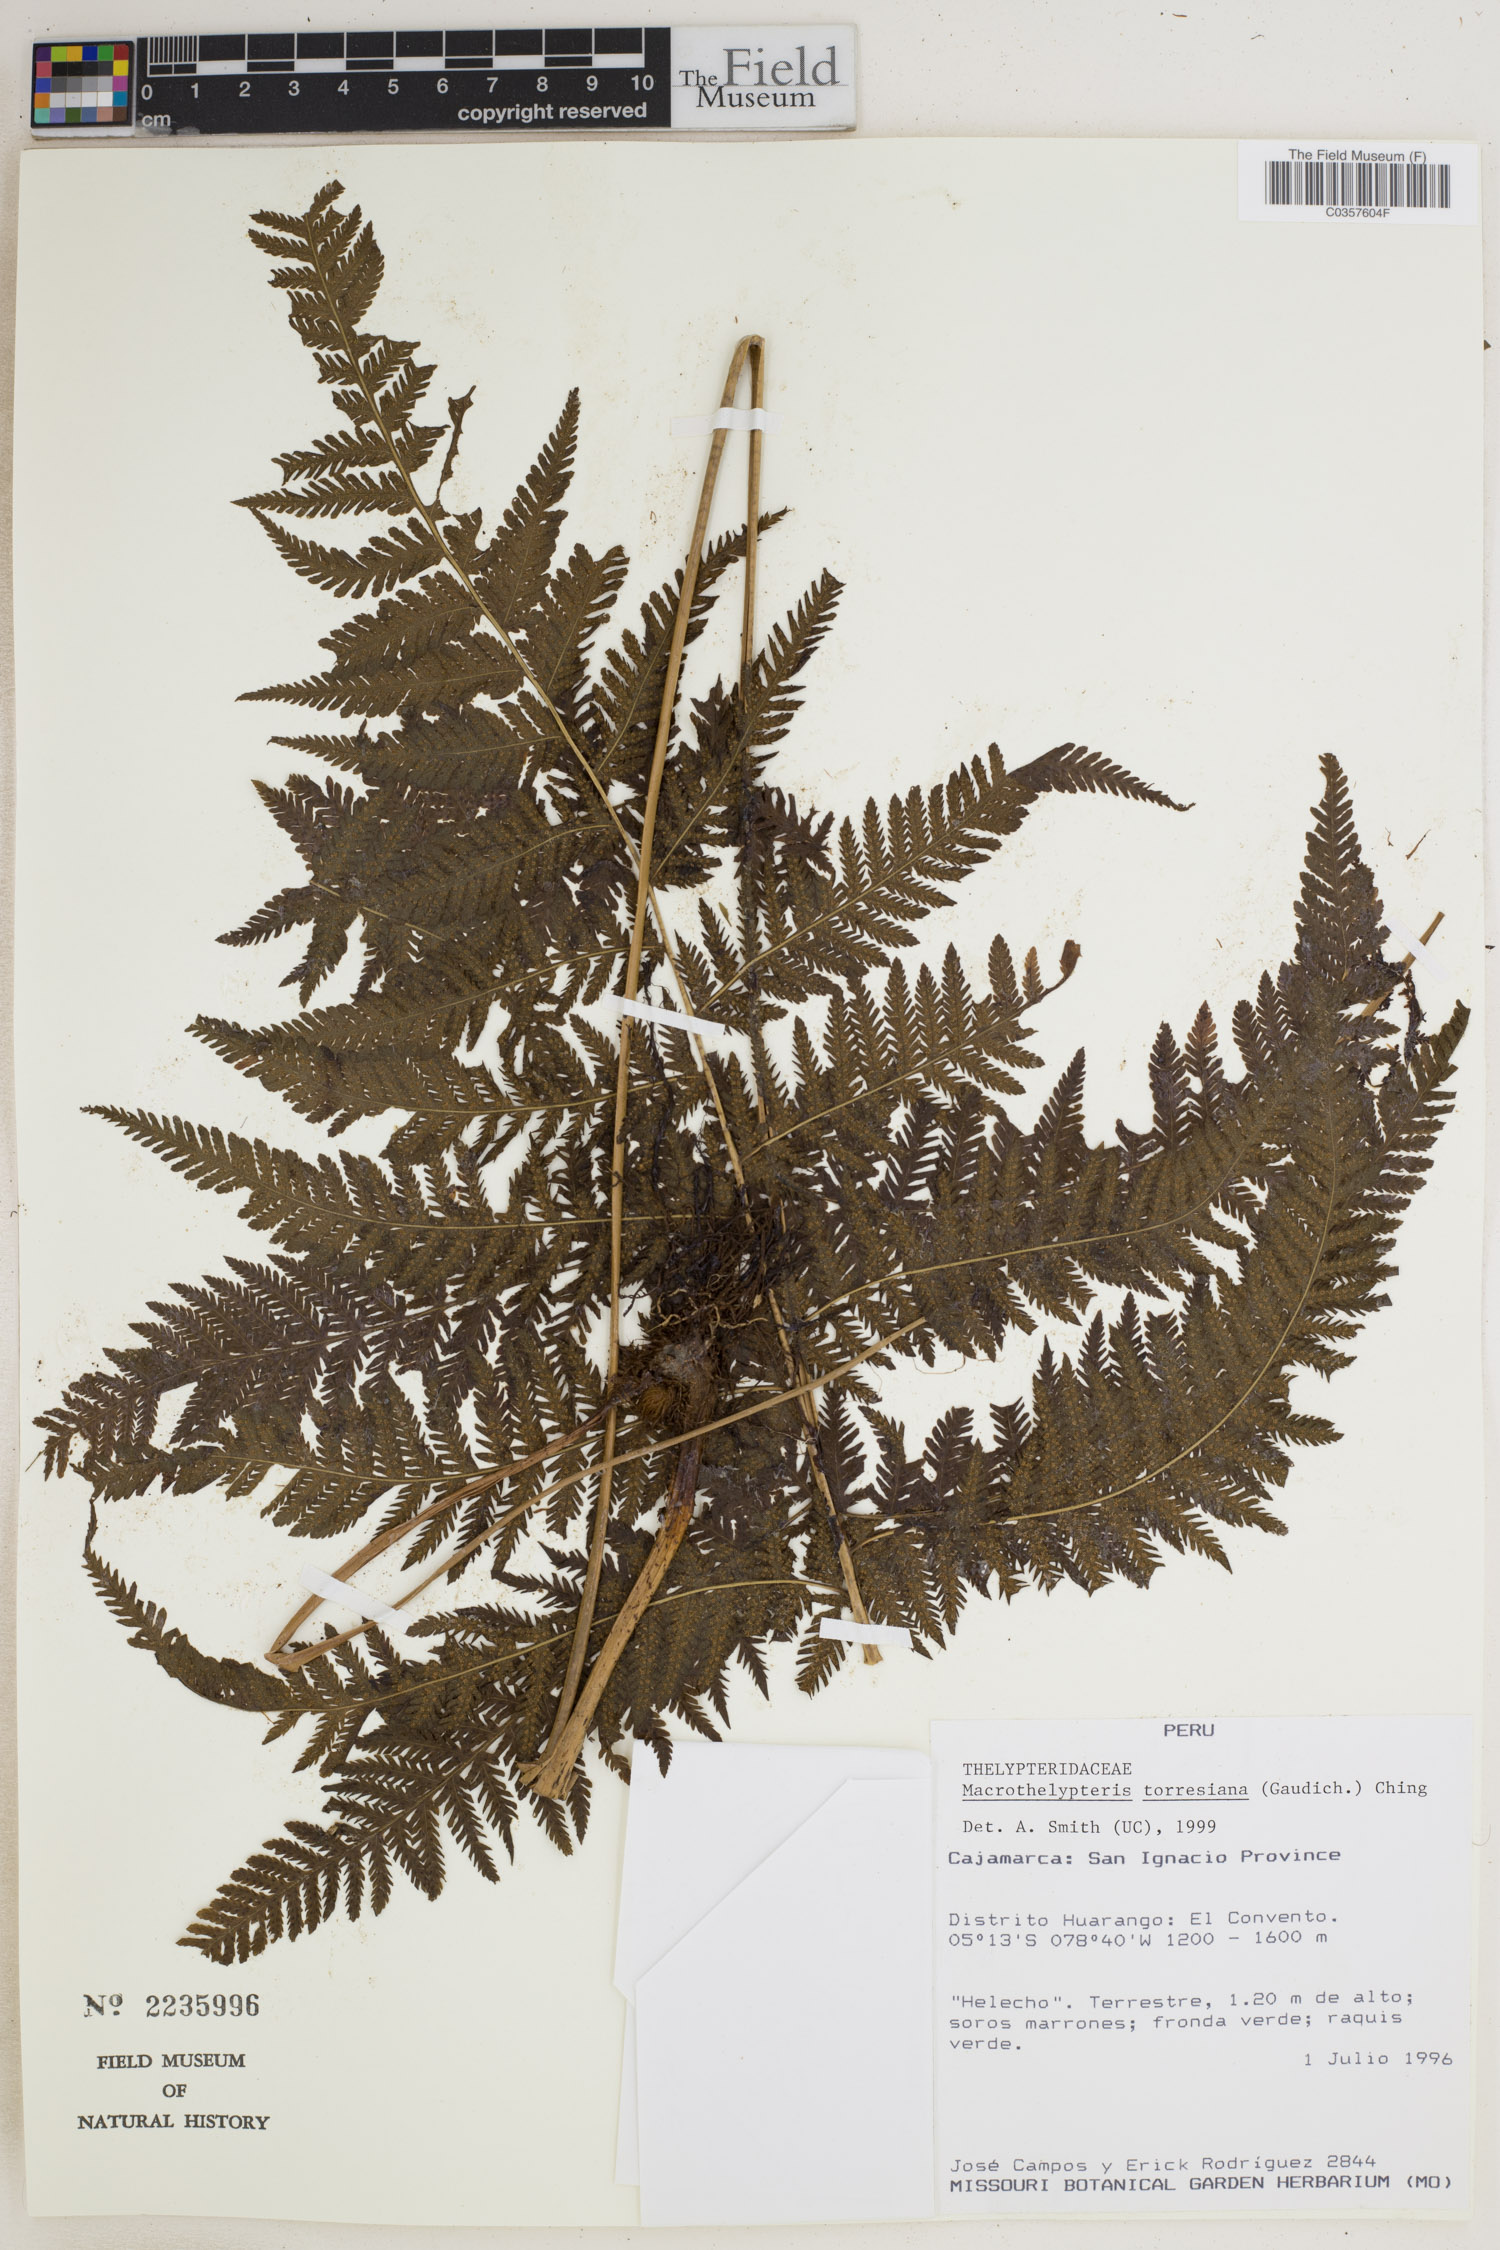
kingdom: Plantae
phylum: Tracheophyta
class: Polypodiopsida
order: Polypodiales
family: Thelypteridaceae
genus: Macrothelypteris
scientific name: Macrothelypteris torresiana
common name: Swordfern
